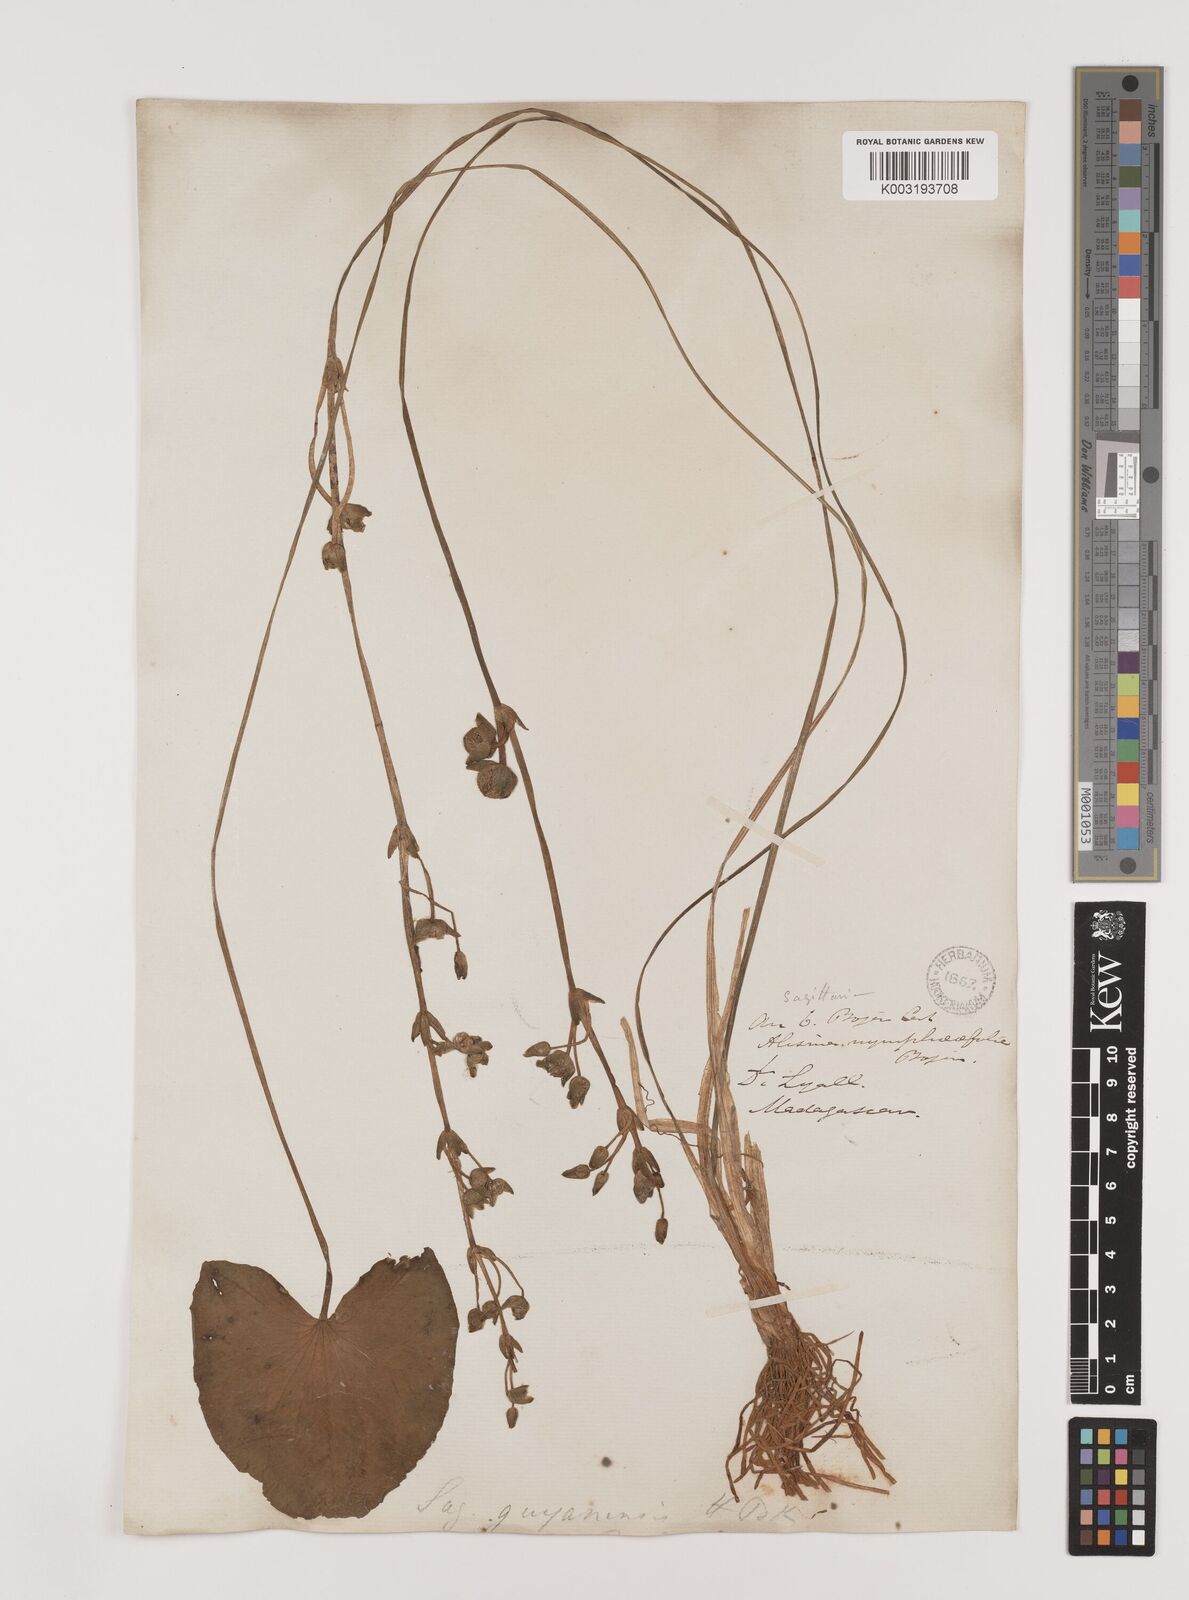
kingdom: Plantae
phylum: Tracheophyta
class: Liliopsida
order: Alismatales
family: Alismataceae
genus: Sagittaria
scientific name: Sagittaria guayanensis
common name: Guyanese arrowhead
